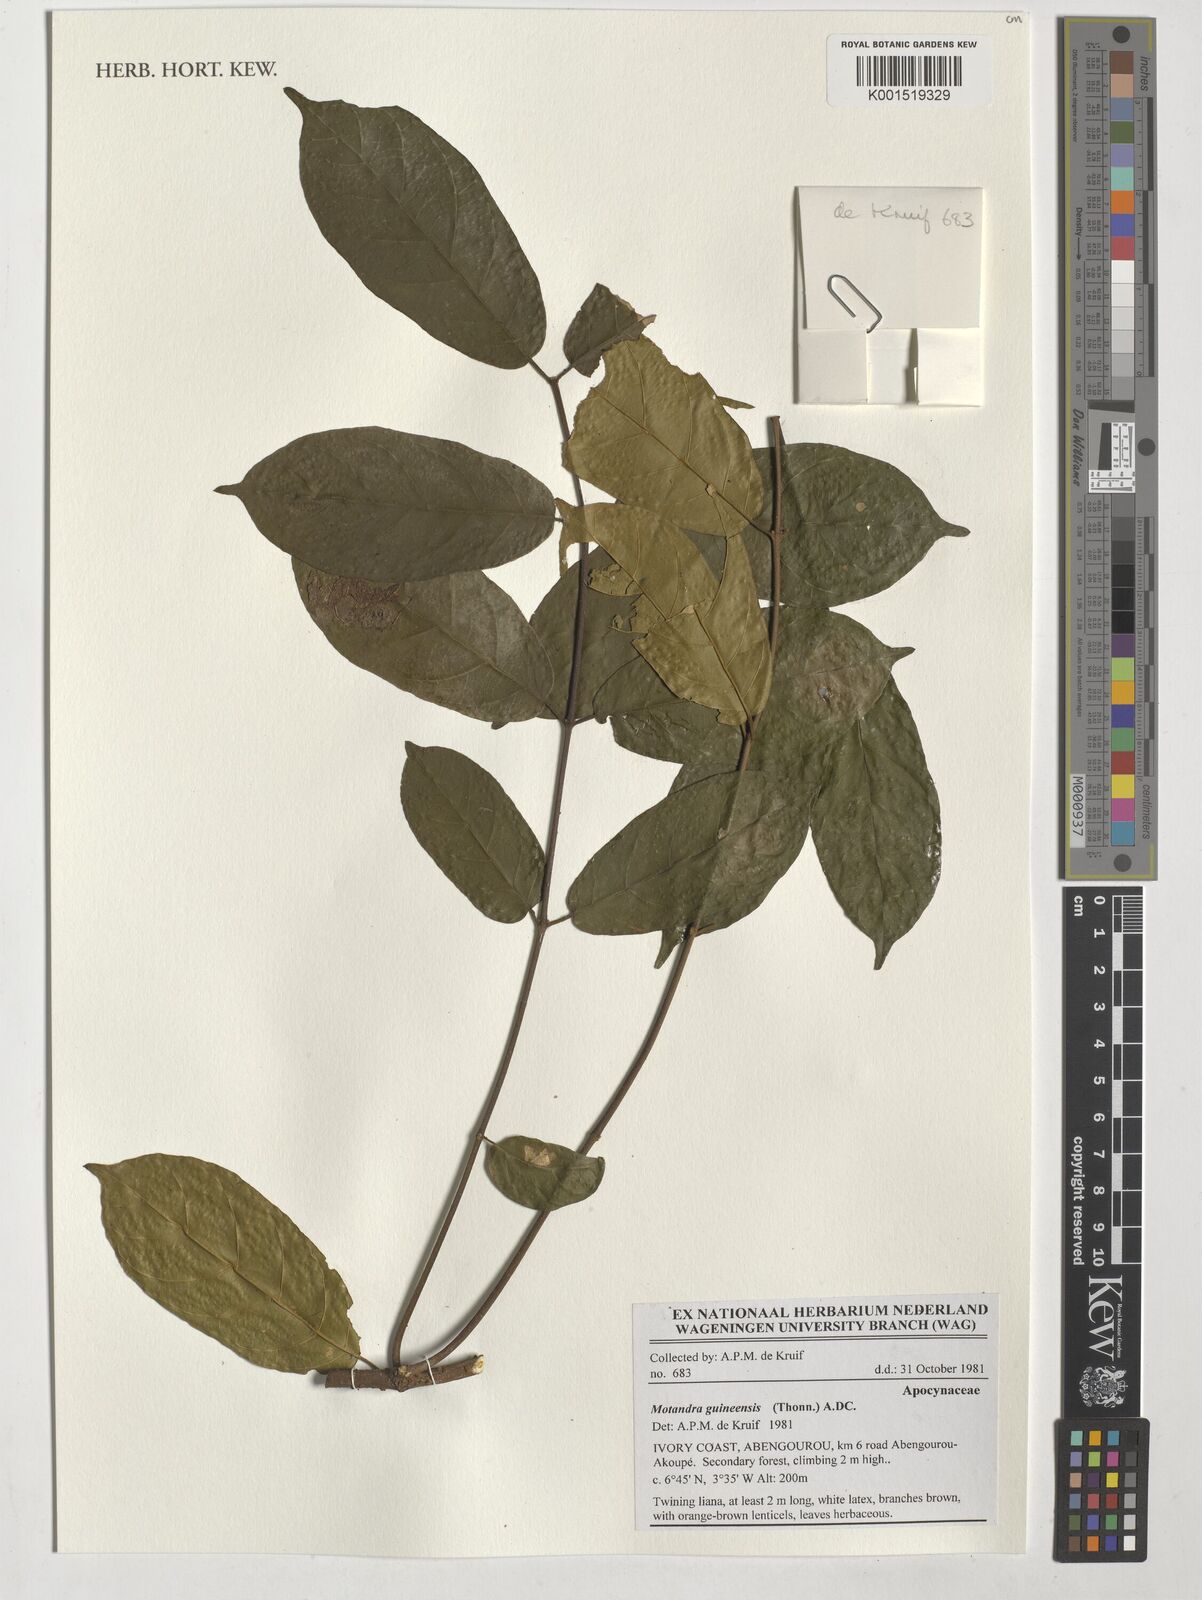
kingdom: Plantae
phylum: Tracheophyta
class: Magnoliopsida
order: Gentianales
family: Apocynaceae
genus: Motandra
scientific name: Motandra paniculata
